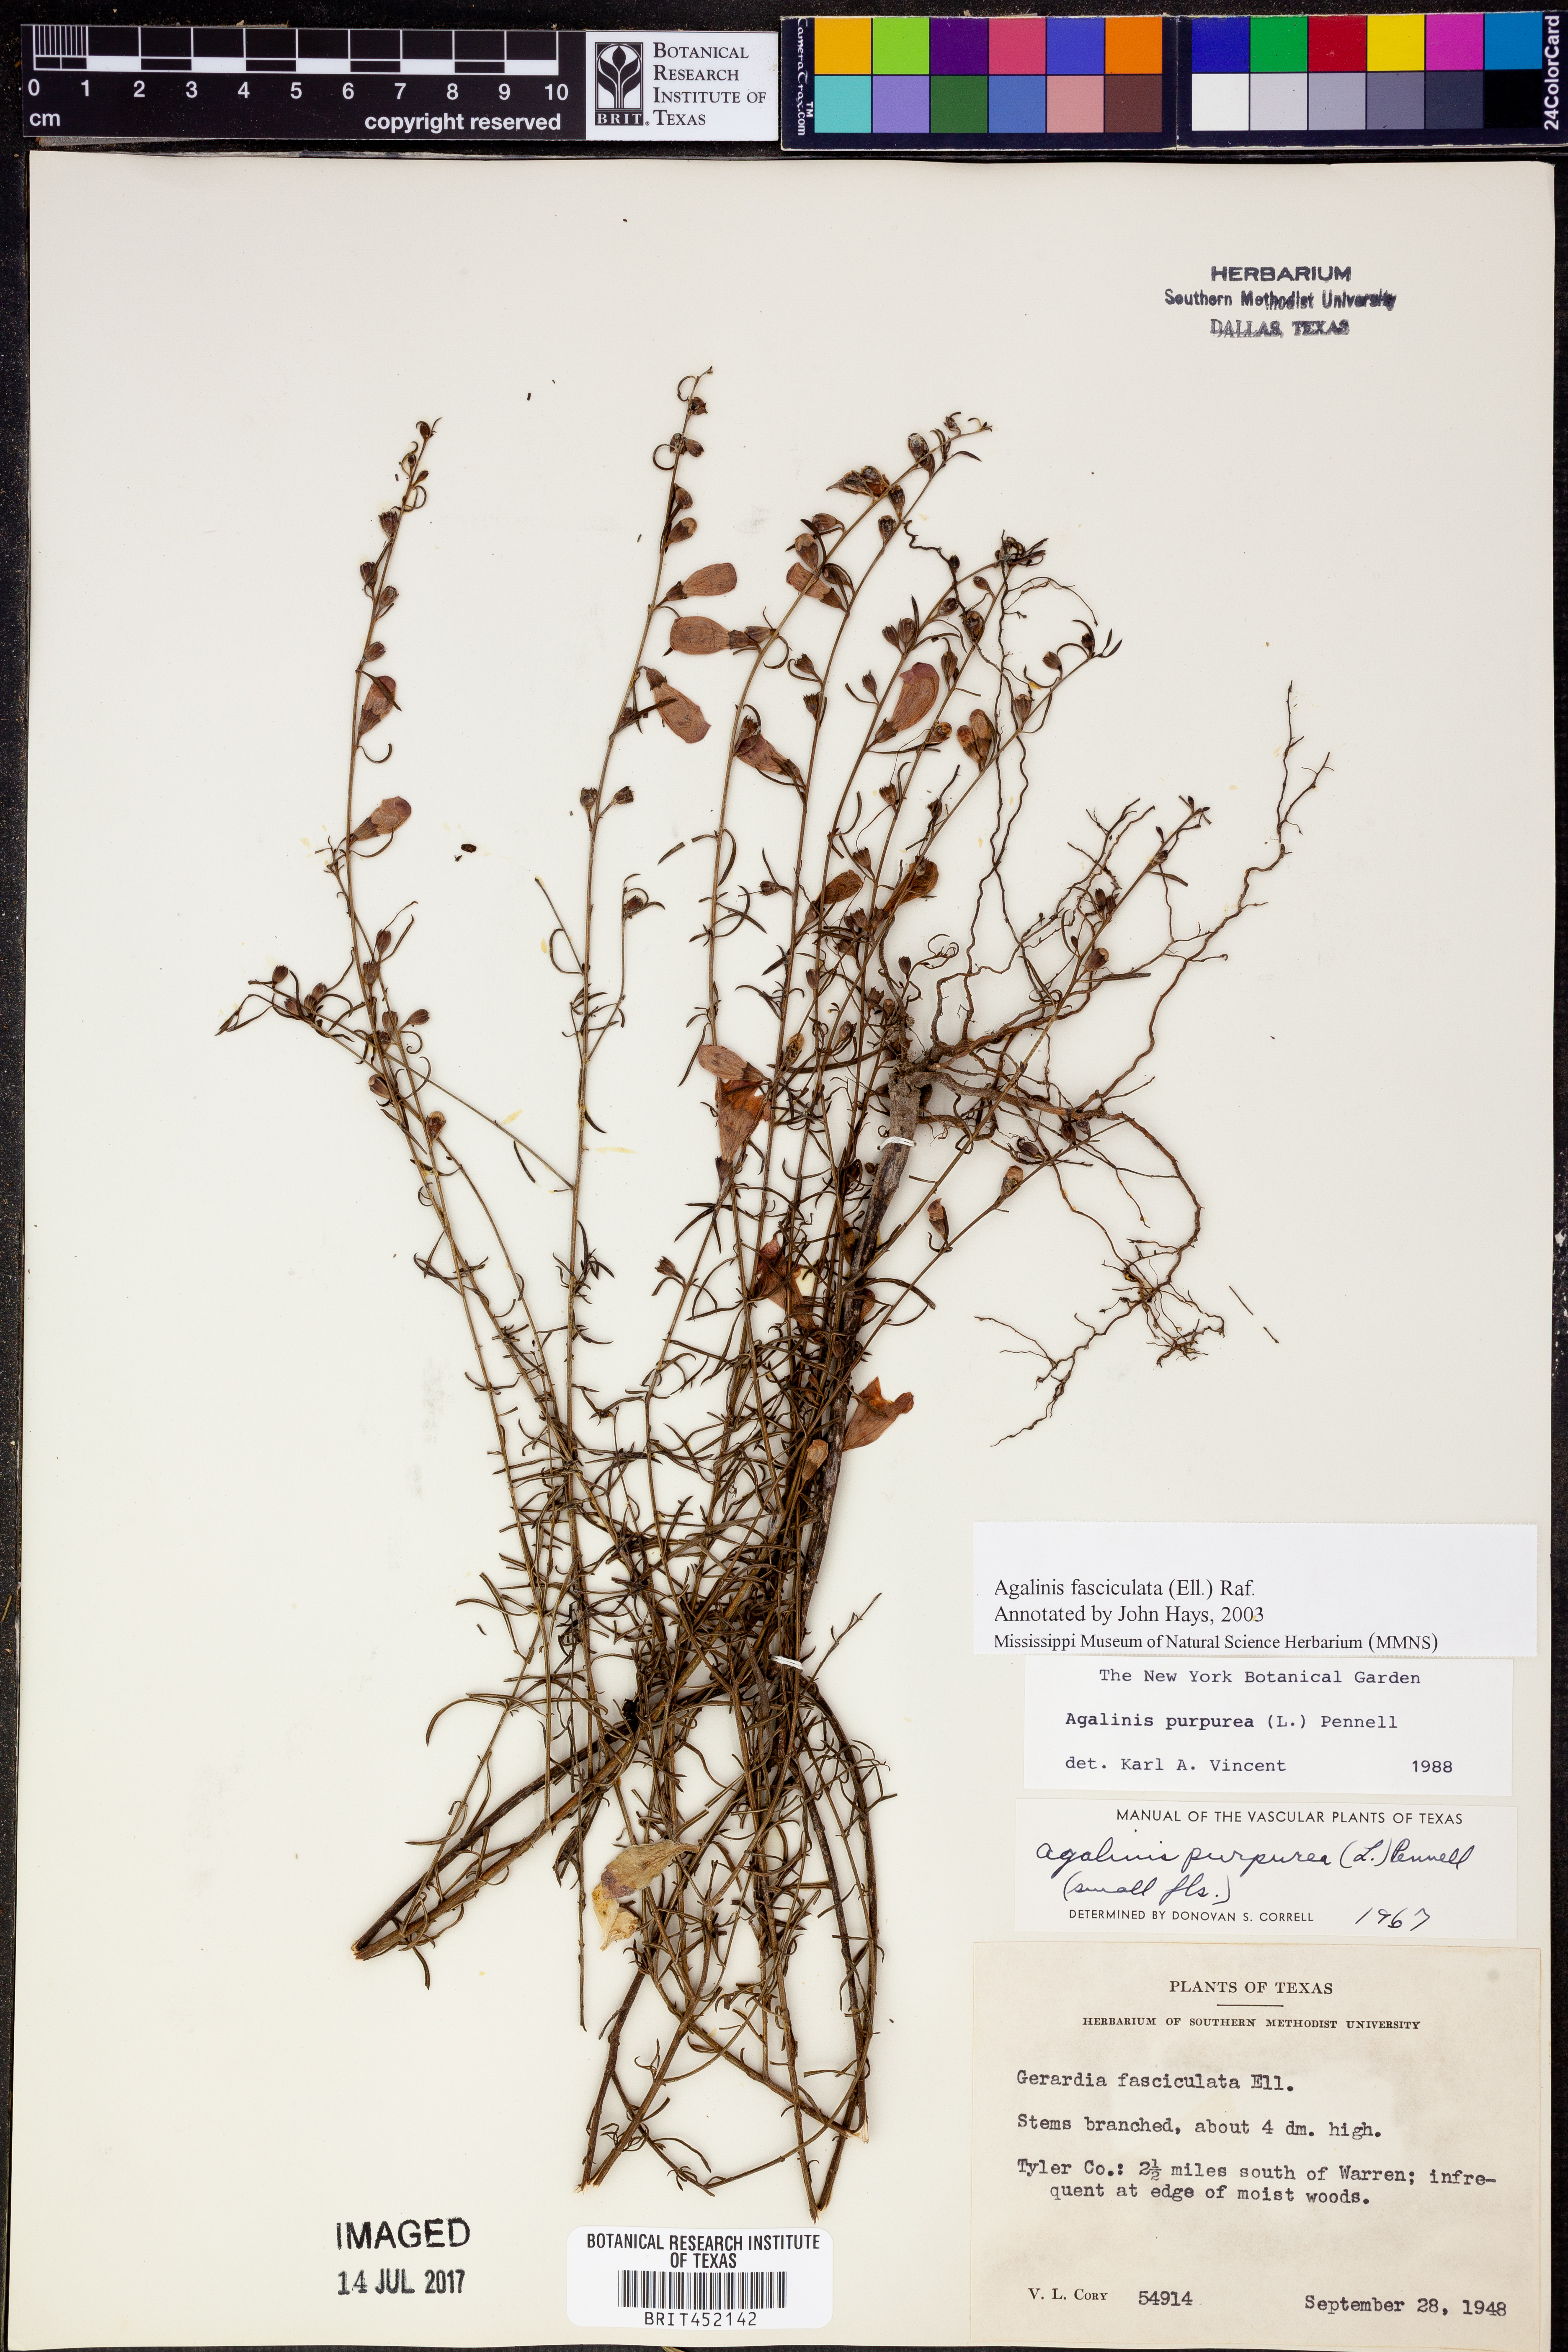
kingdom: Plantae
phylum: Tracheophyta
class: Magnoliopsida
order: Lamiales
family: Orobanchaceae
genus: Agalinis
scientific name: Agalinis fasciculata
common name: Beach false foxglove
